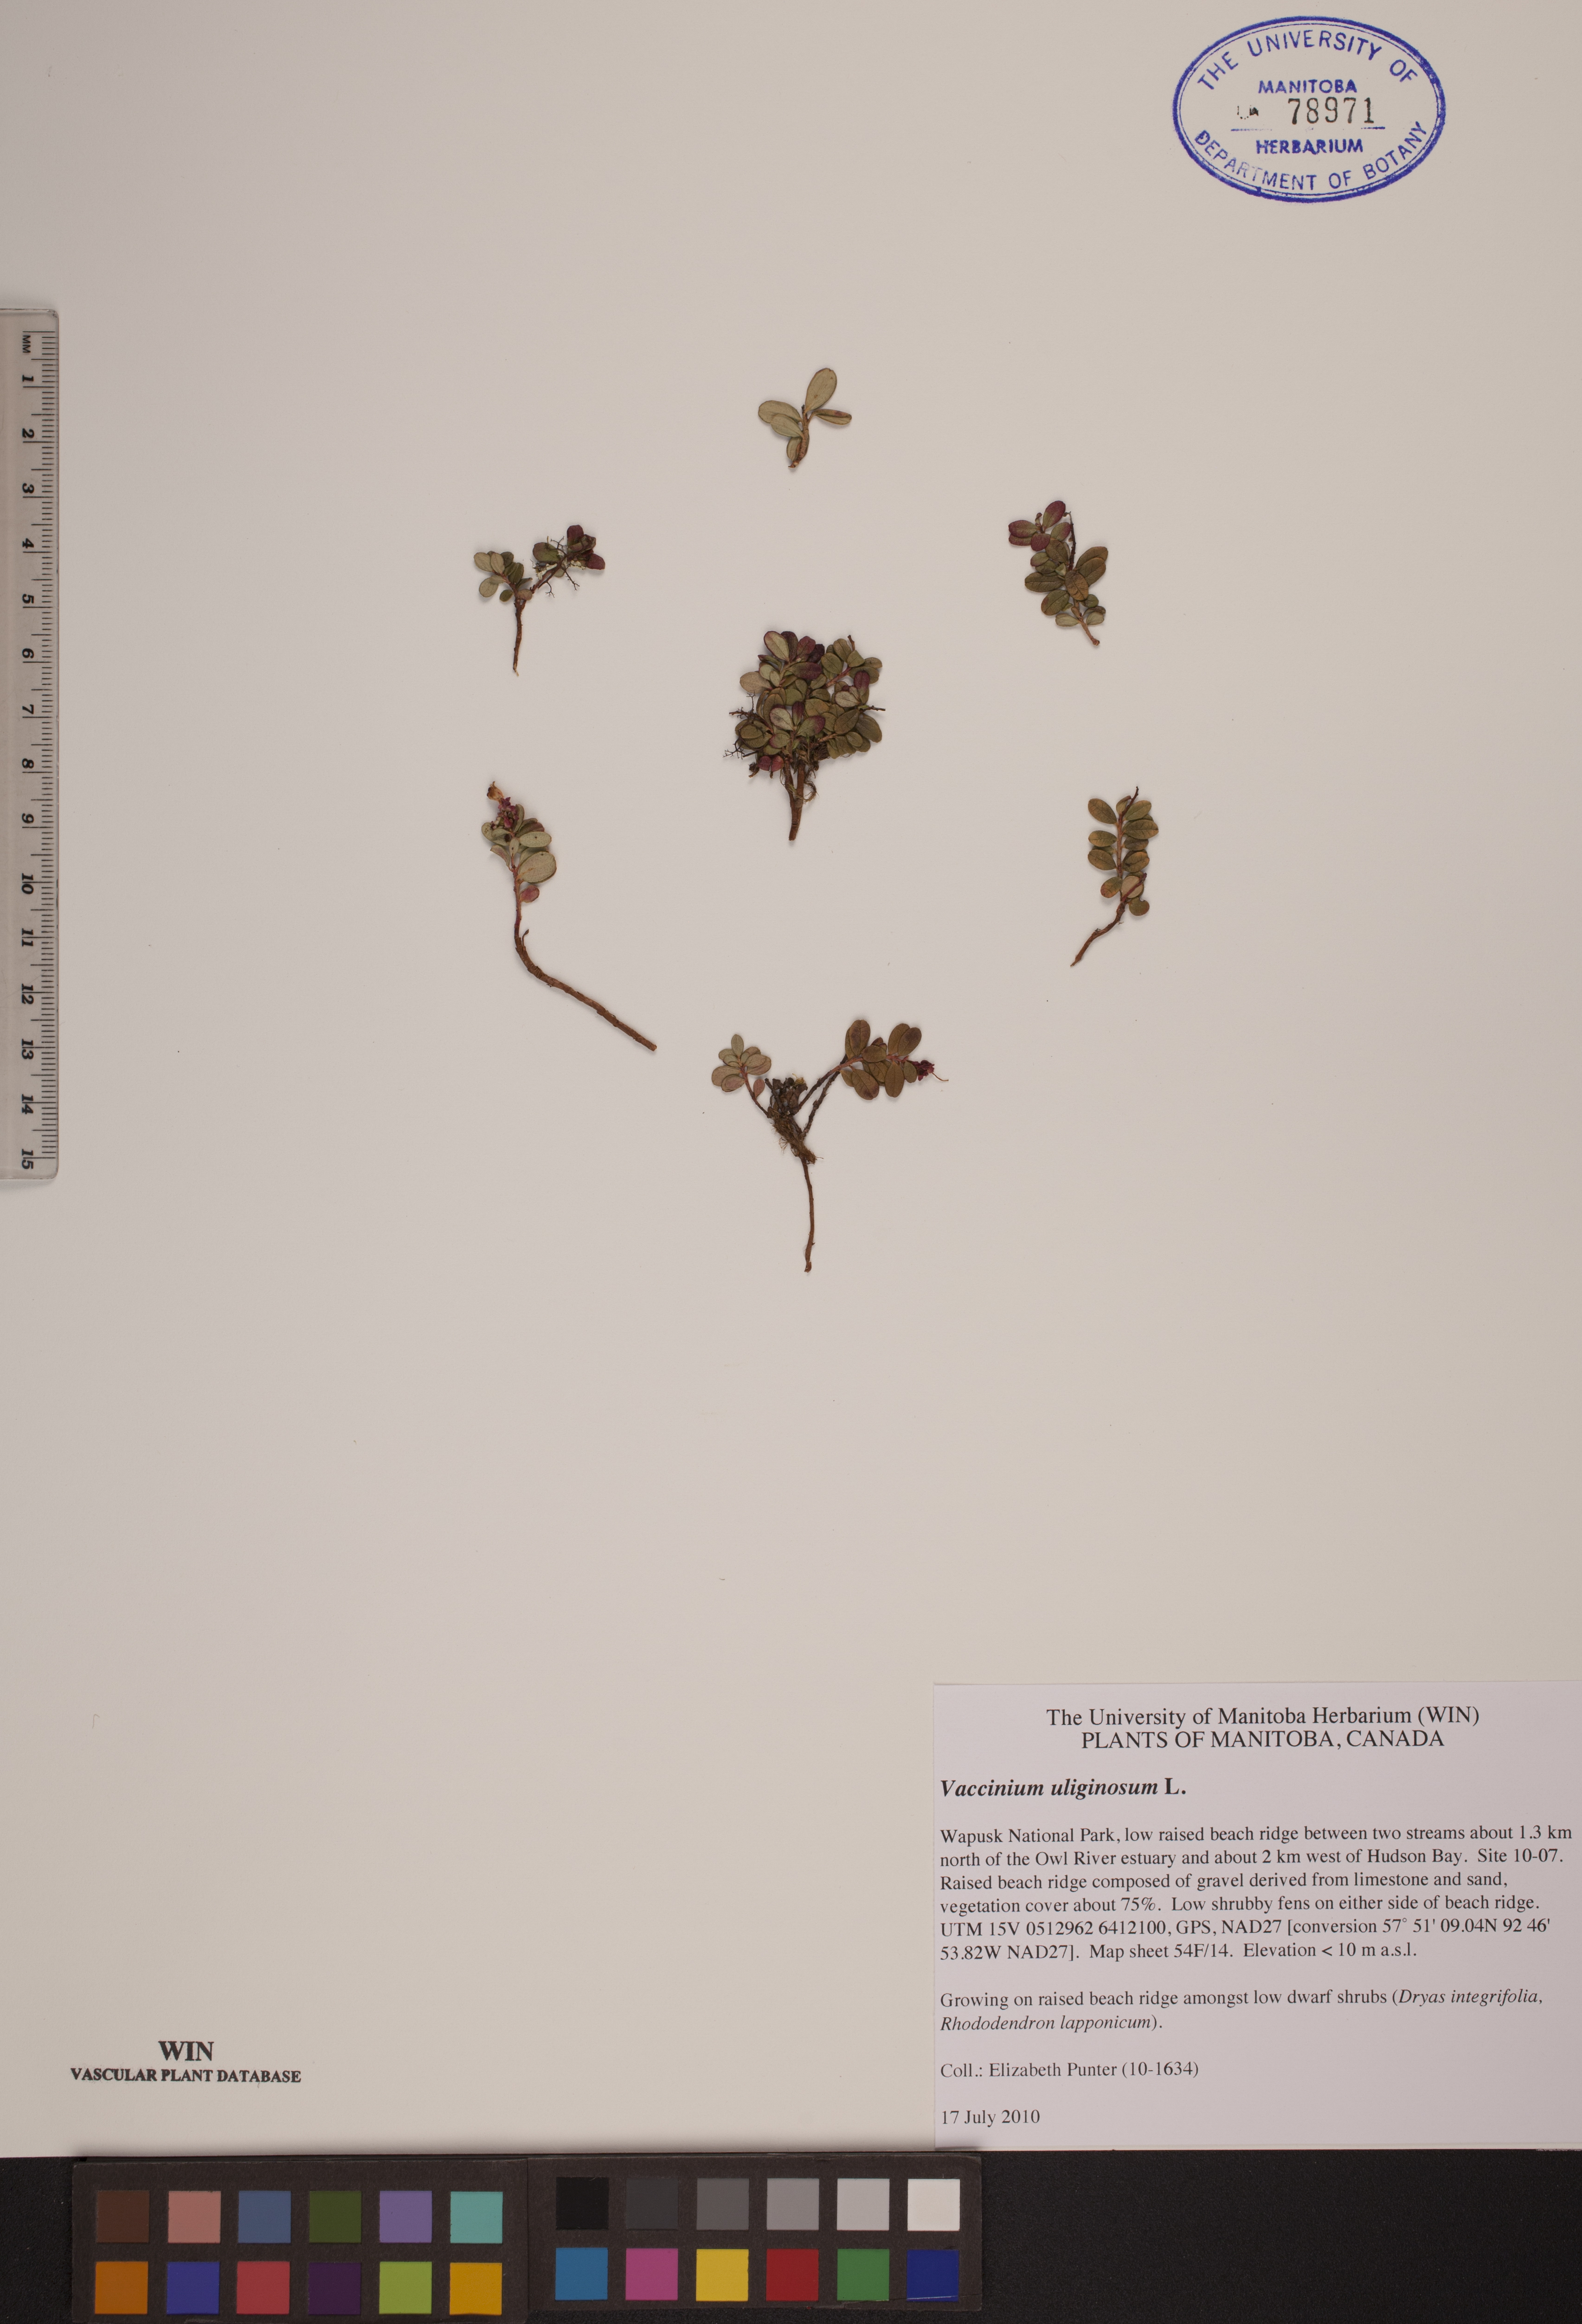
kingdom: Plantae
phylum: Tracheophyta
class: Magnoliopsida
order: Ericales
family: Ericaceae
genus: Vaccinium
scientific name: Vaccinium uliginosum
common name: Bog bilberry
